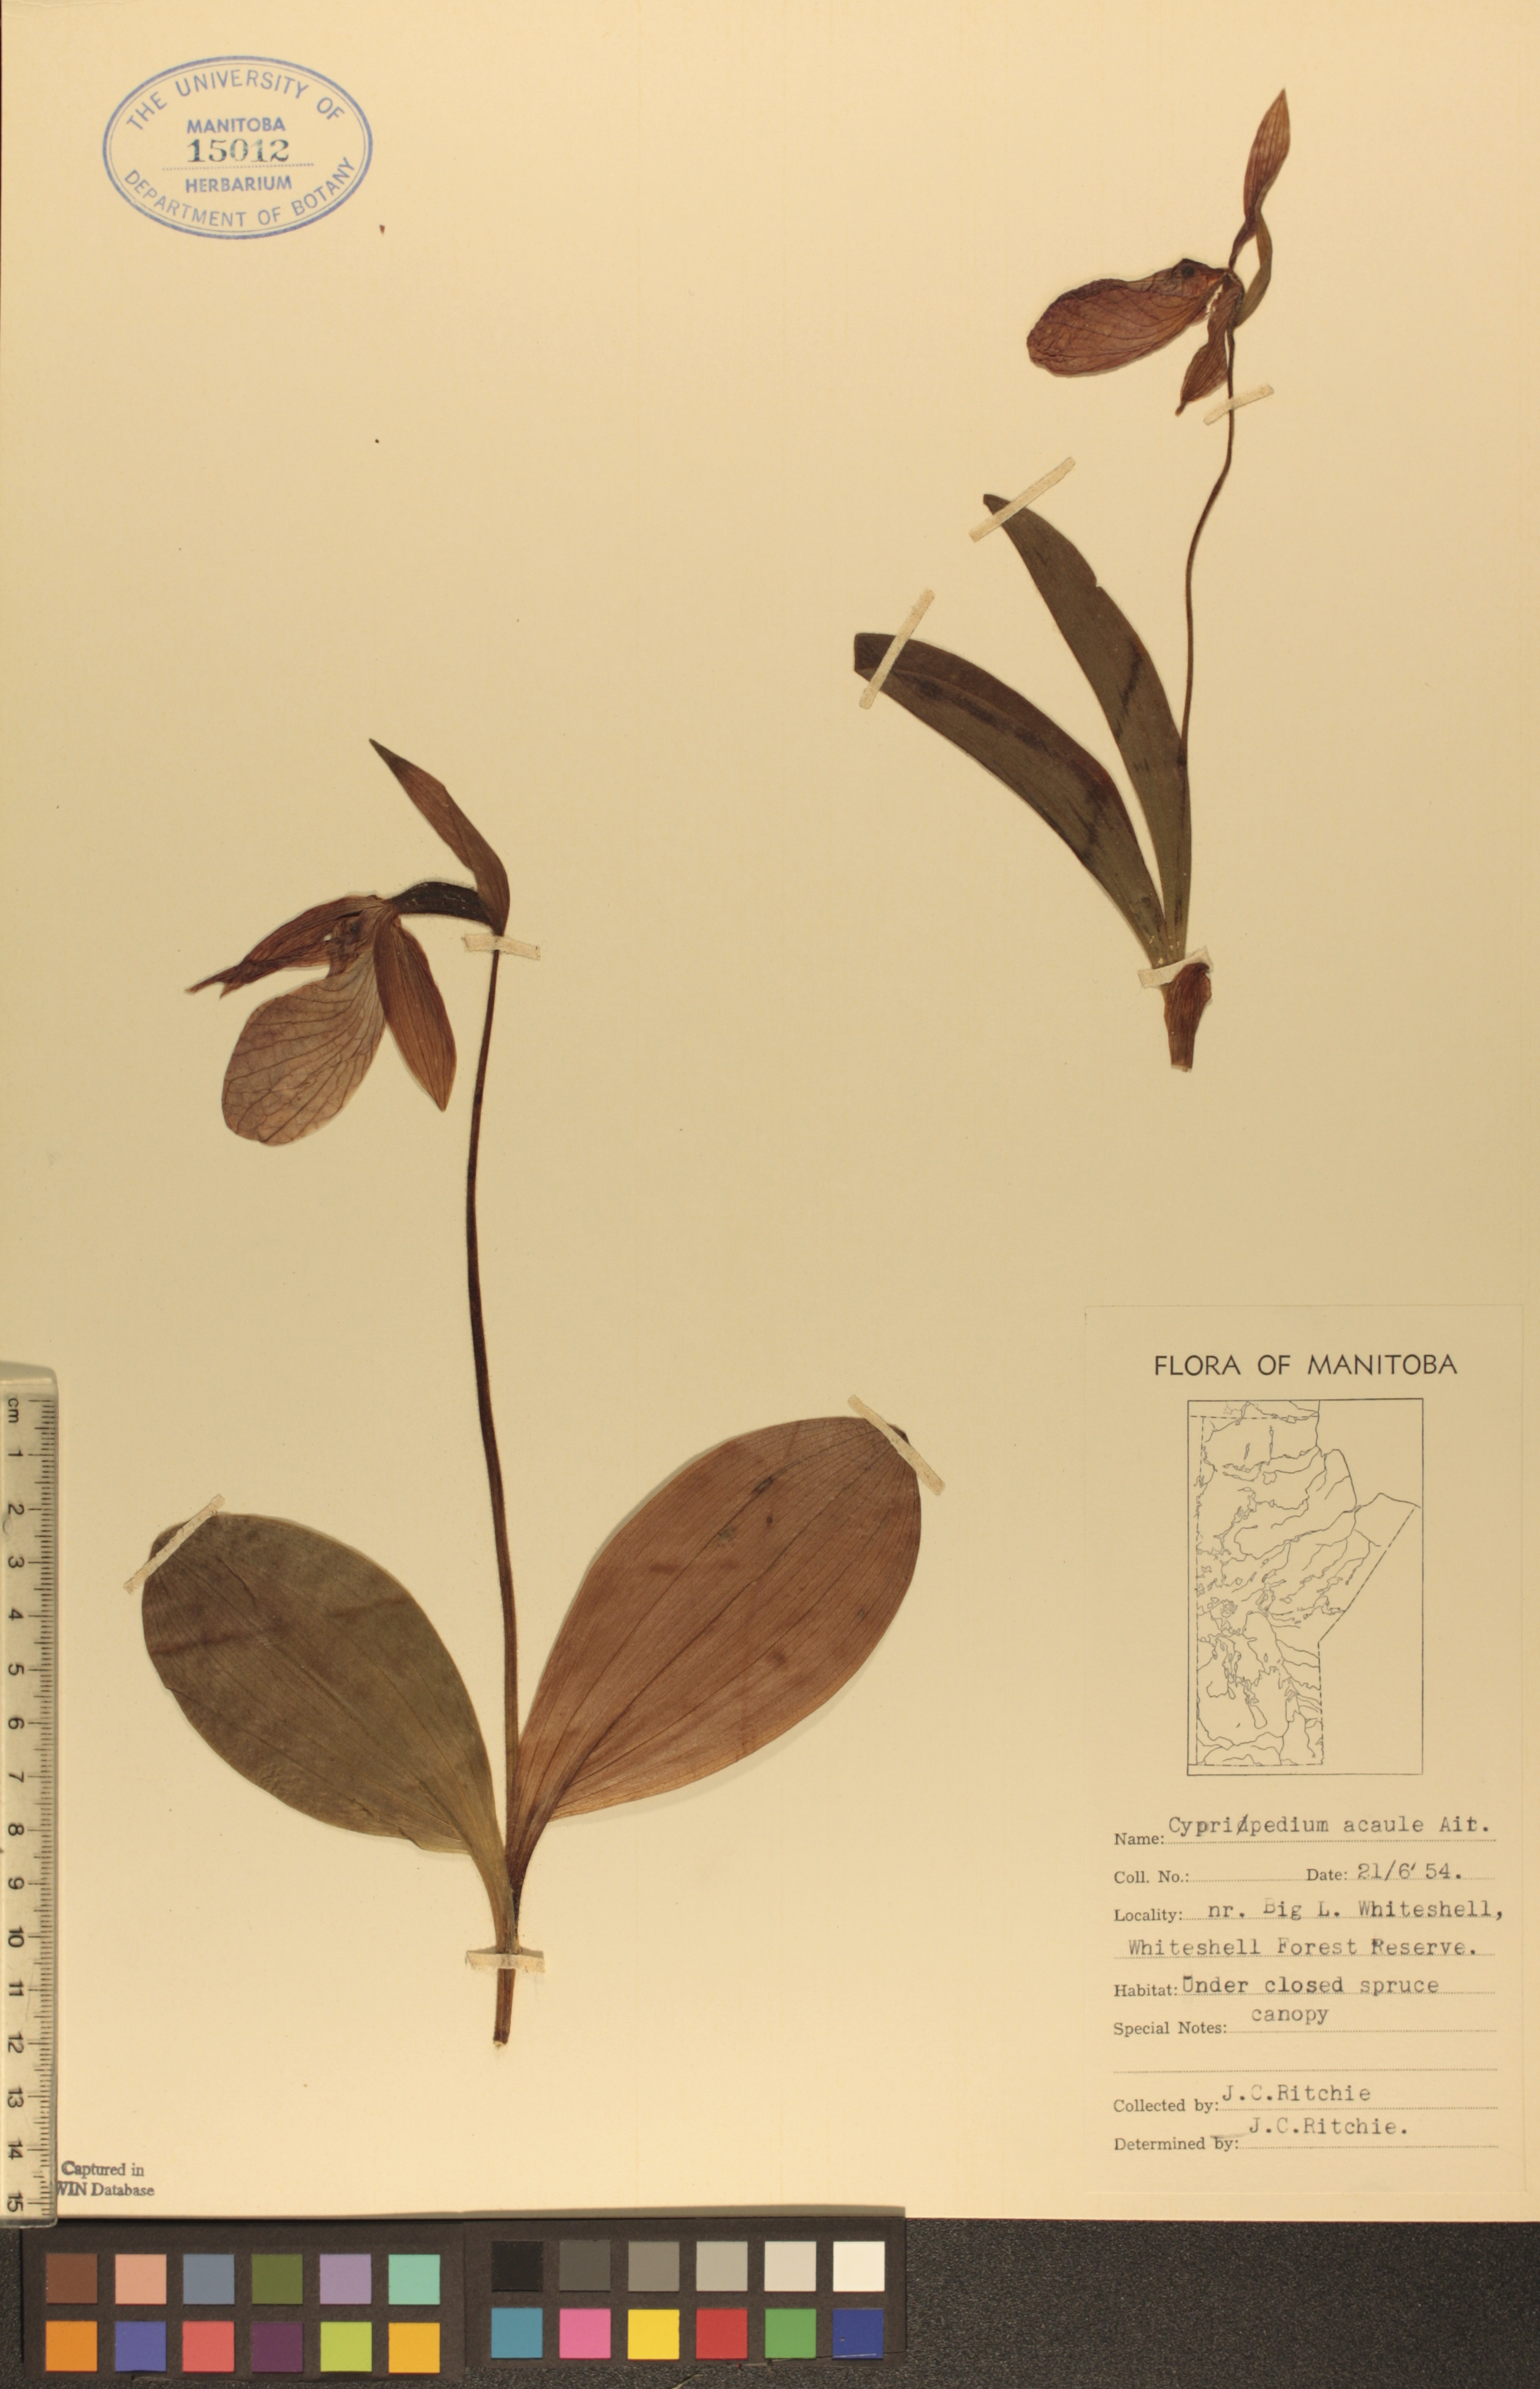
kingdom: Plantae
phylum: Tracheophyta
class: Liliopsida
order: Asparagales
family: Orchidaceae
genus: Cypripedium
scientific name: Cypripedium acaule
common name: Pink lady's-slipper
